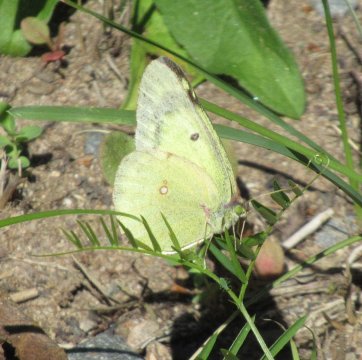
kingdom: Animalia
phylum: Arthropoda
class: Insecta
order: Lepidoptera
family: Pieridae
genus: Colias
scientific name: Colias philodice
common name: Clouded Sulphur
